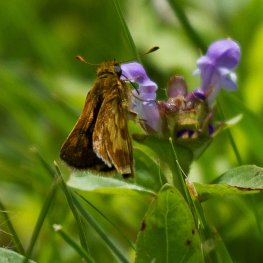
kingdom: Animalia
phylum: Arthropoda
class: Insecta
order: Lepidoptera
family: Hesperiidae
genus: Polites
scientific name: Polites coras
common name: Peck's Skipper
